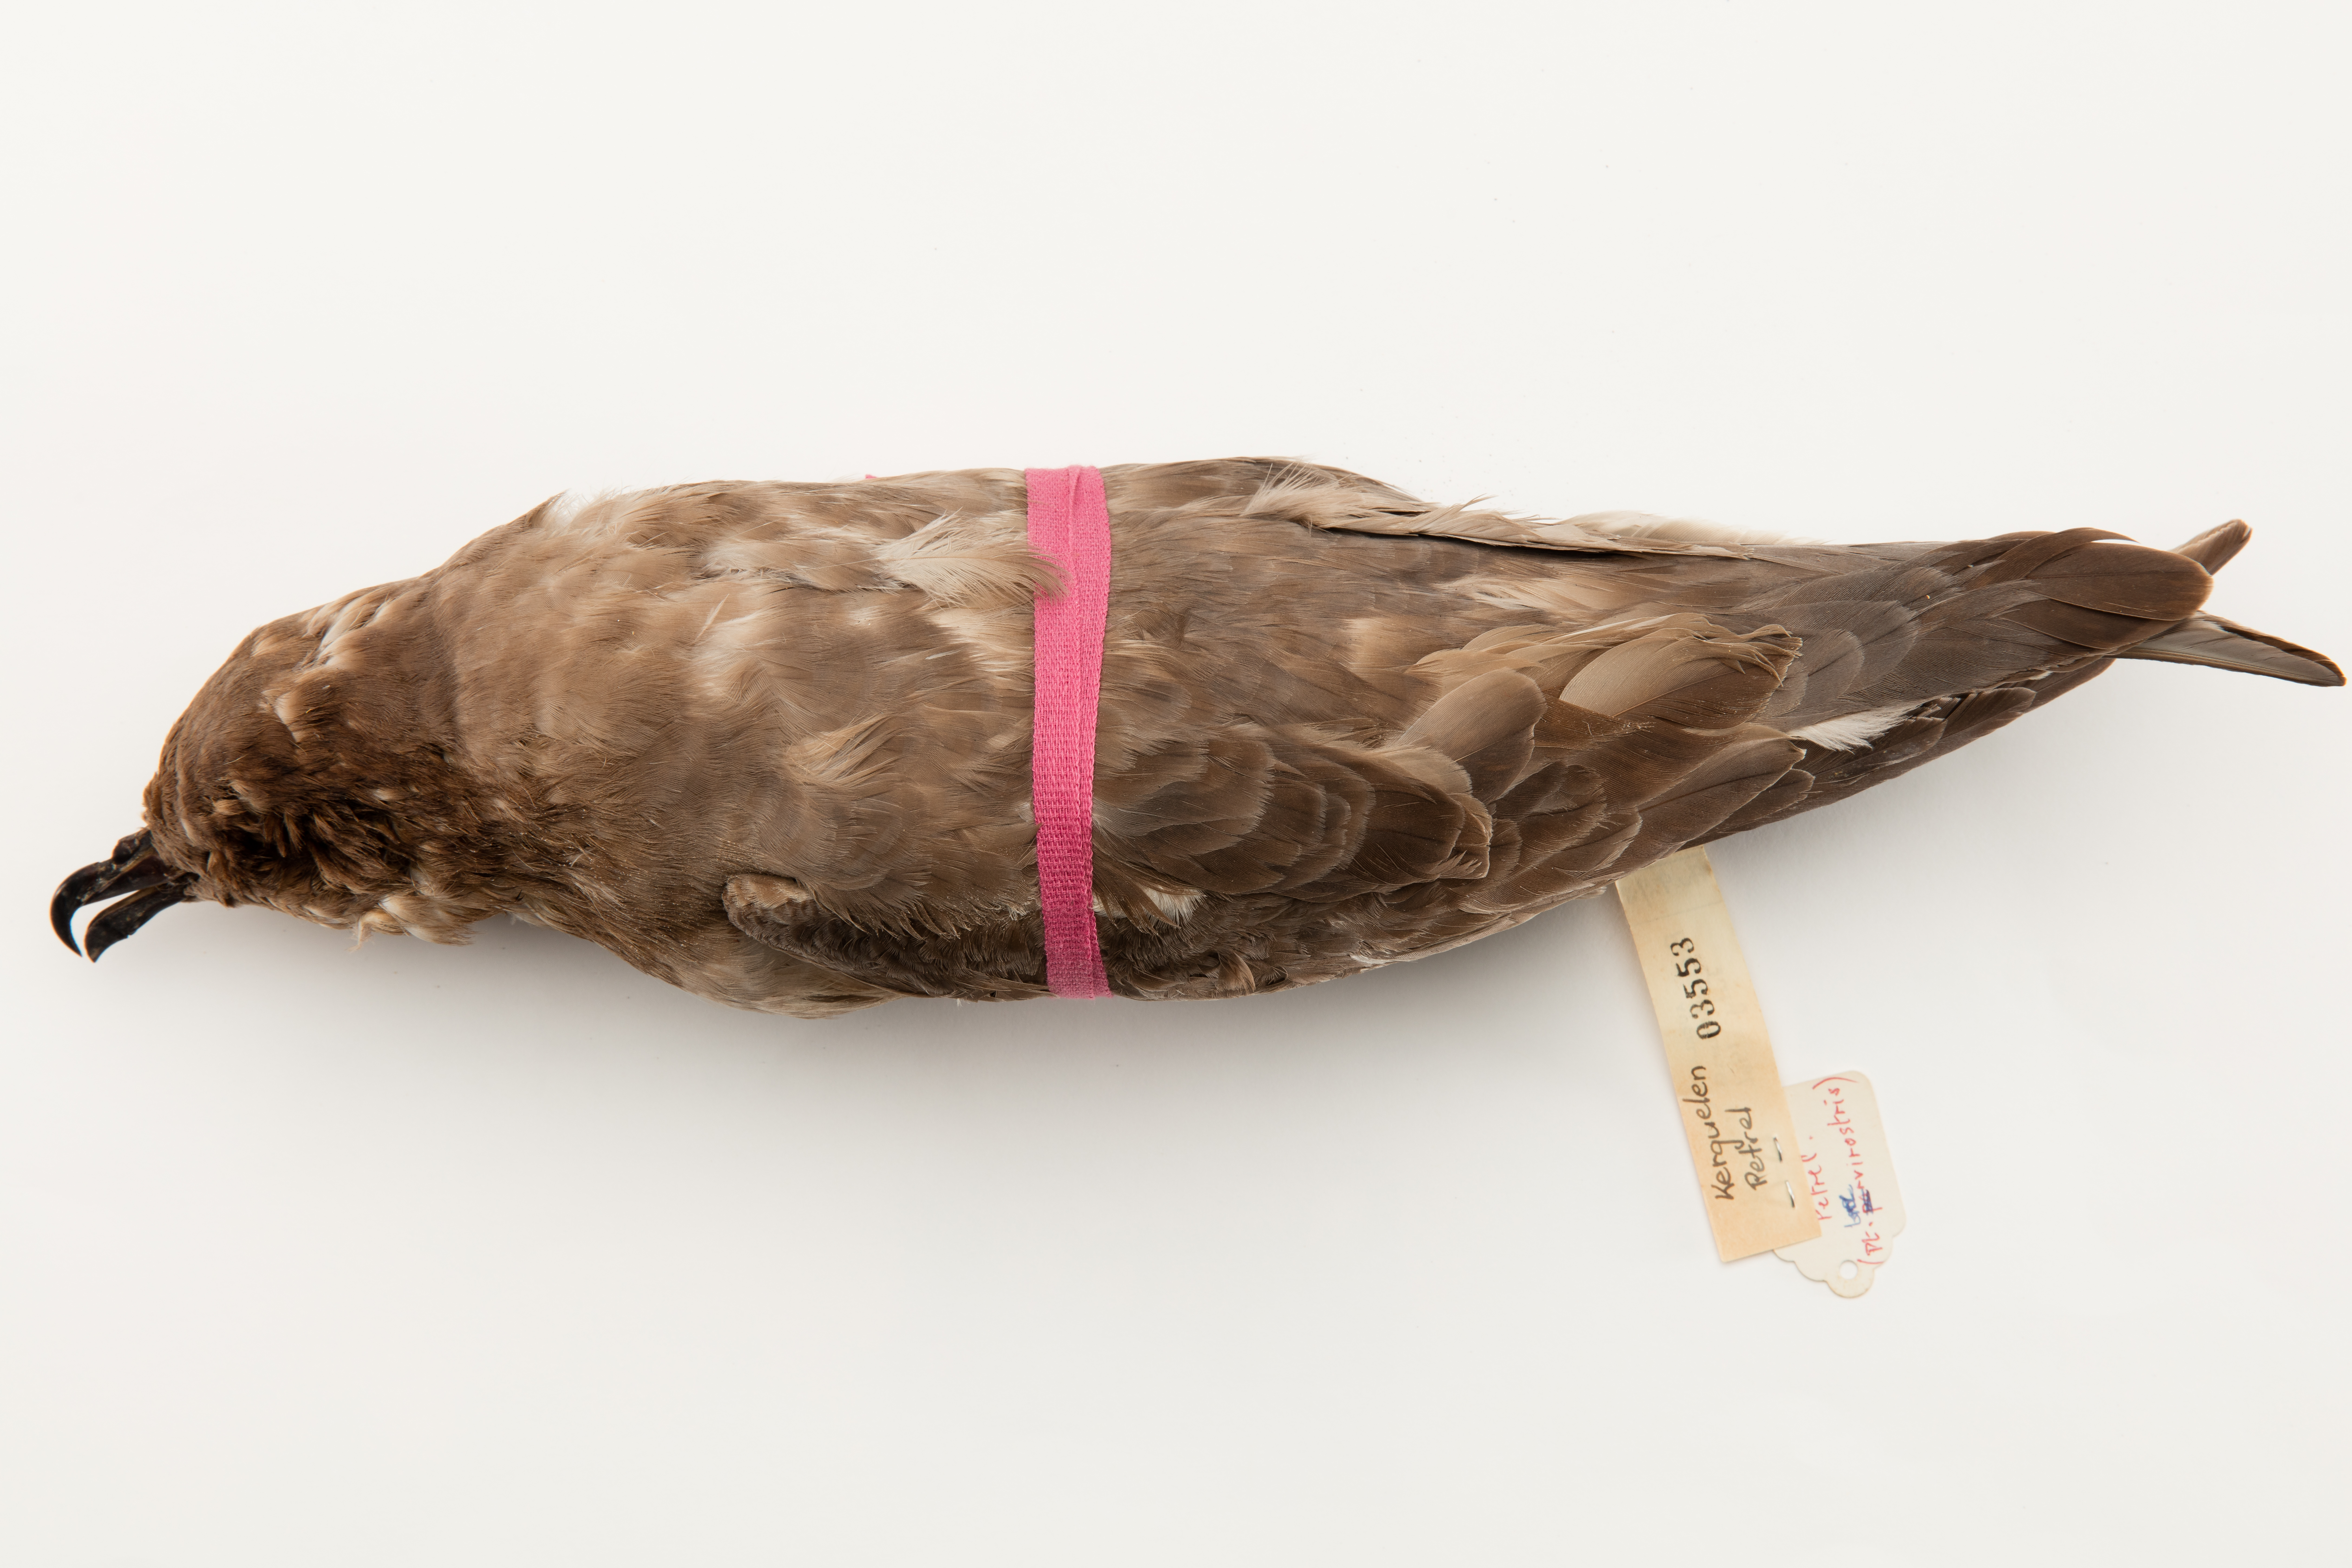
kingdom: Animalia
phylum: Chordata
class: Aves
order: Procellariiformes
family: Procellariidae
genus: Aphrodroma
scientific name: Aphrodroma brevirostris
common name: Kerguelen petrel
